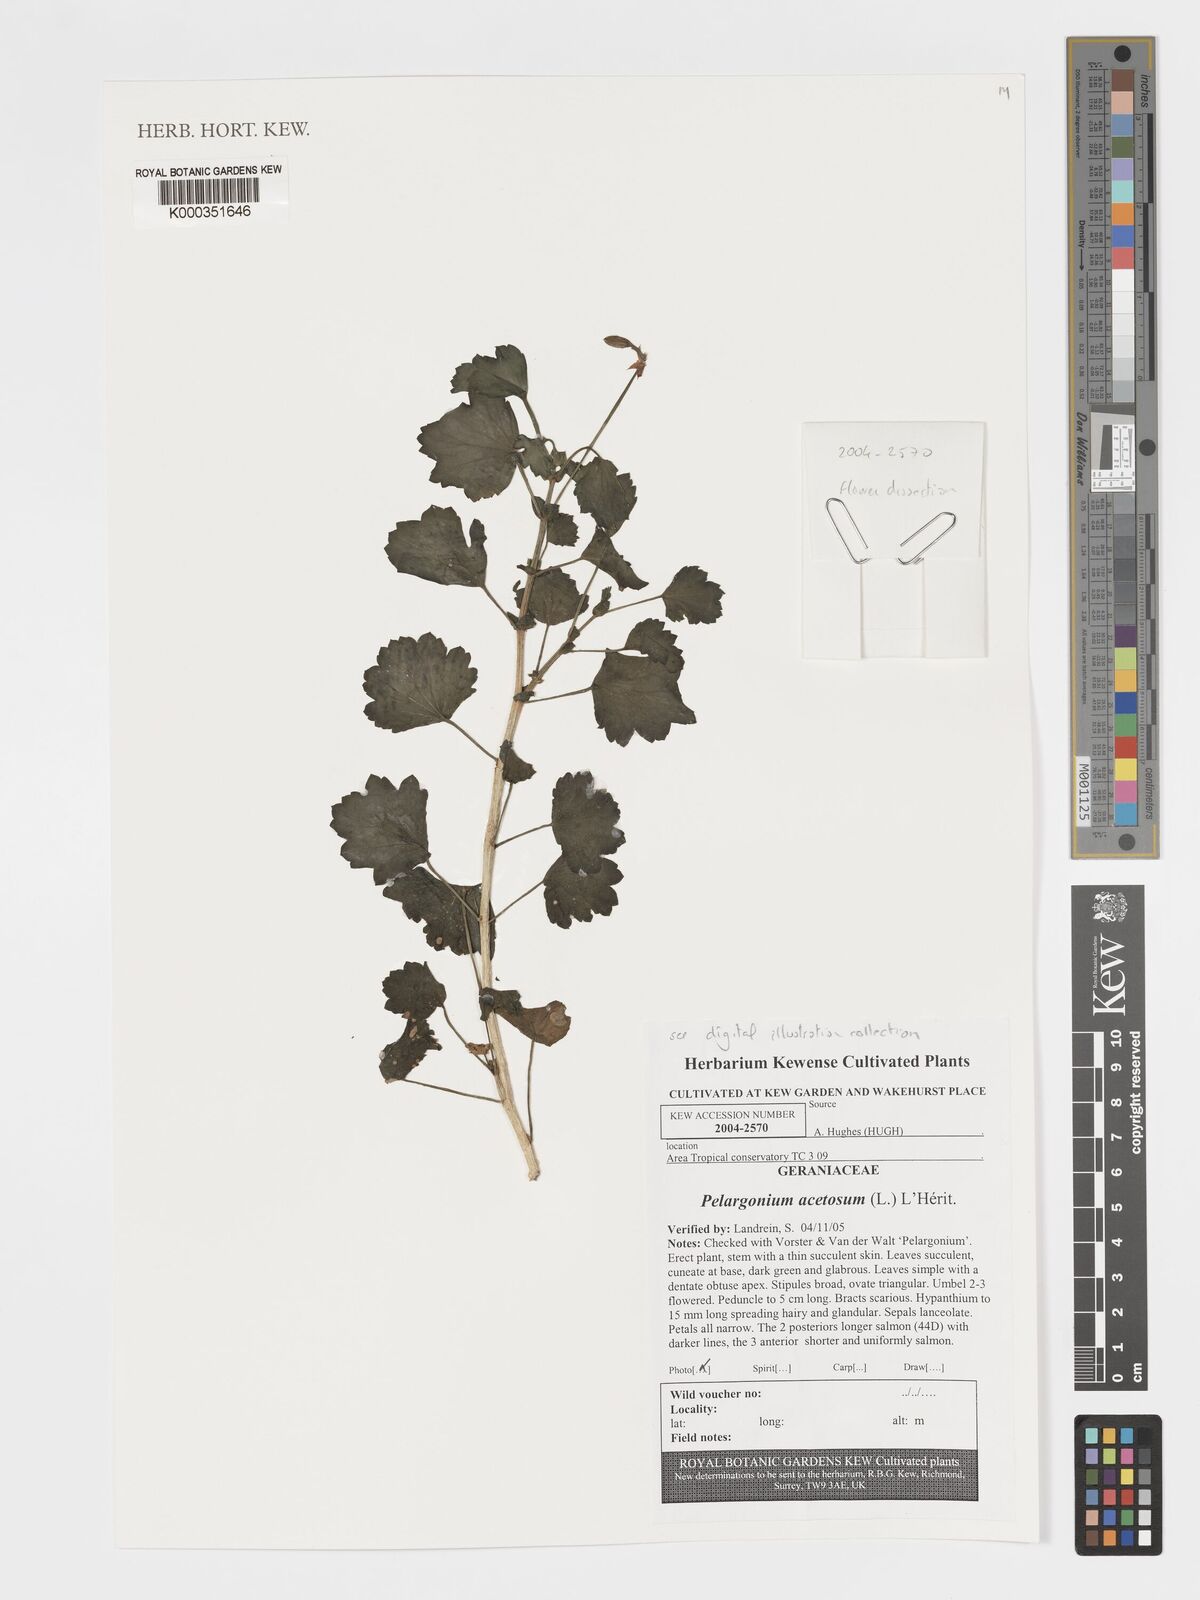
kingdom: Plantae
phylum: Tracheophyta
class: Magnoliopsida
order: Geraniales
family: Geraniaceae
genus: Pelargonium
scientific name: Pelargonium acetosum
